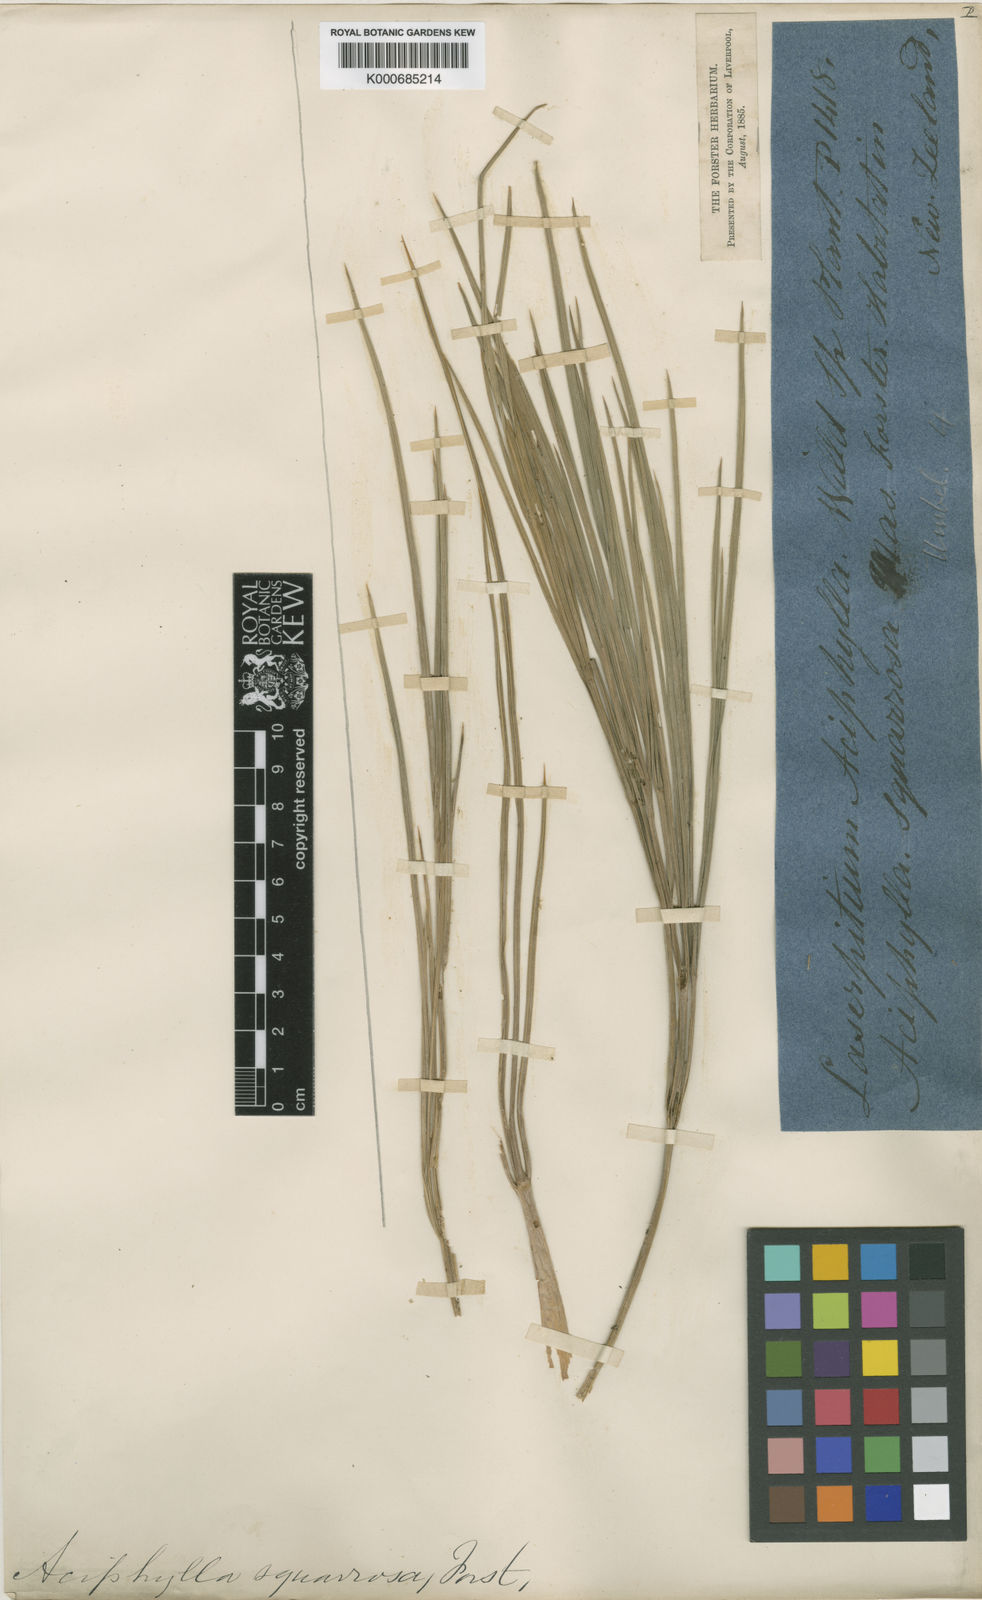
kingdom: Plantae
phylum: Tracheophyta
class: Magnoliopsida
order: Apiales
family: Apiaceae
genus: Aciphylla
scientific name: Aciphylla squarrosa
